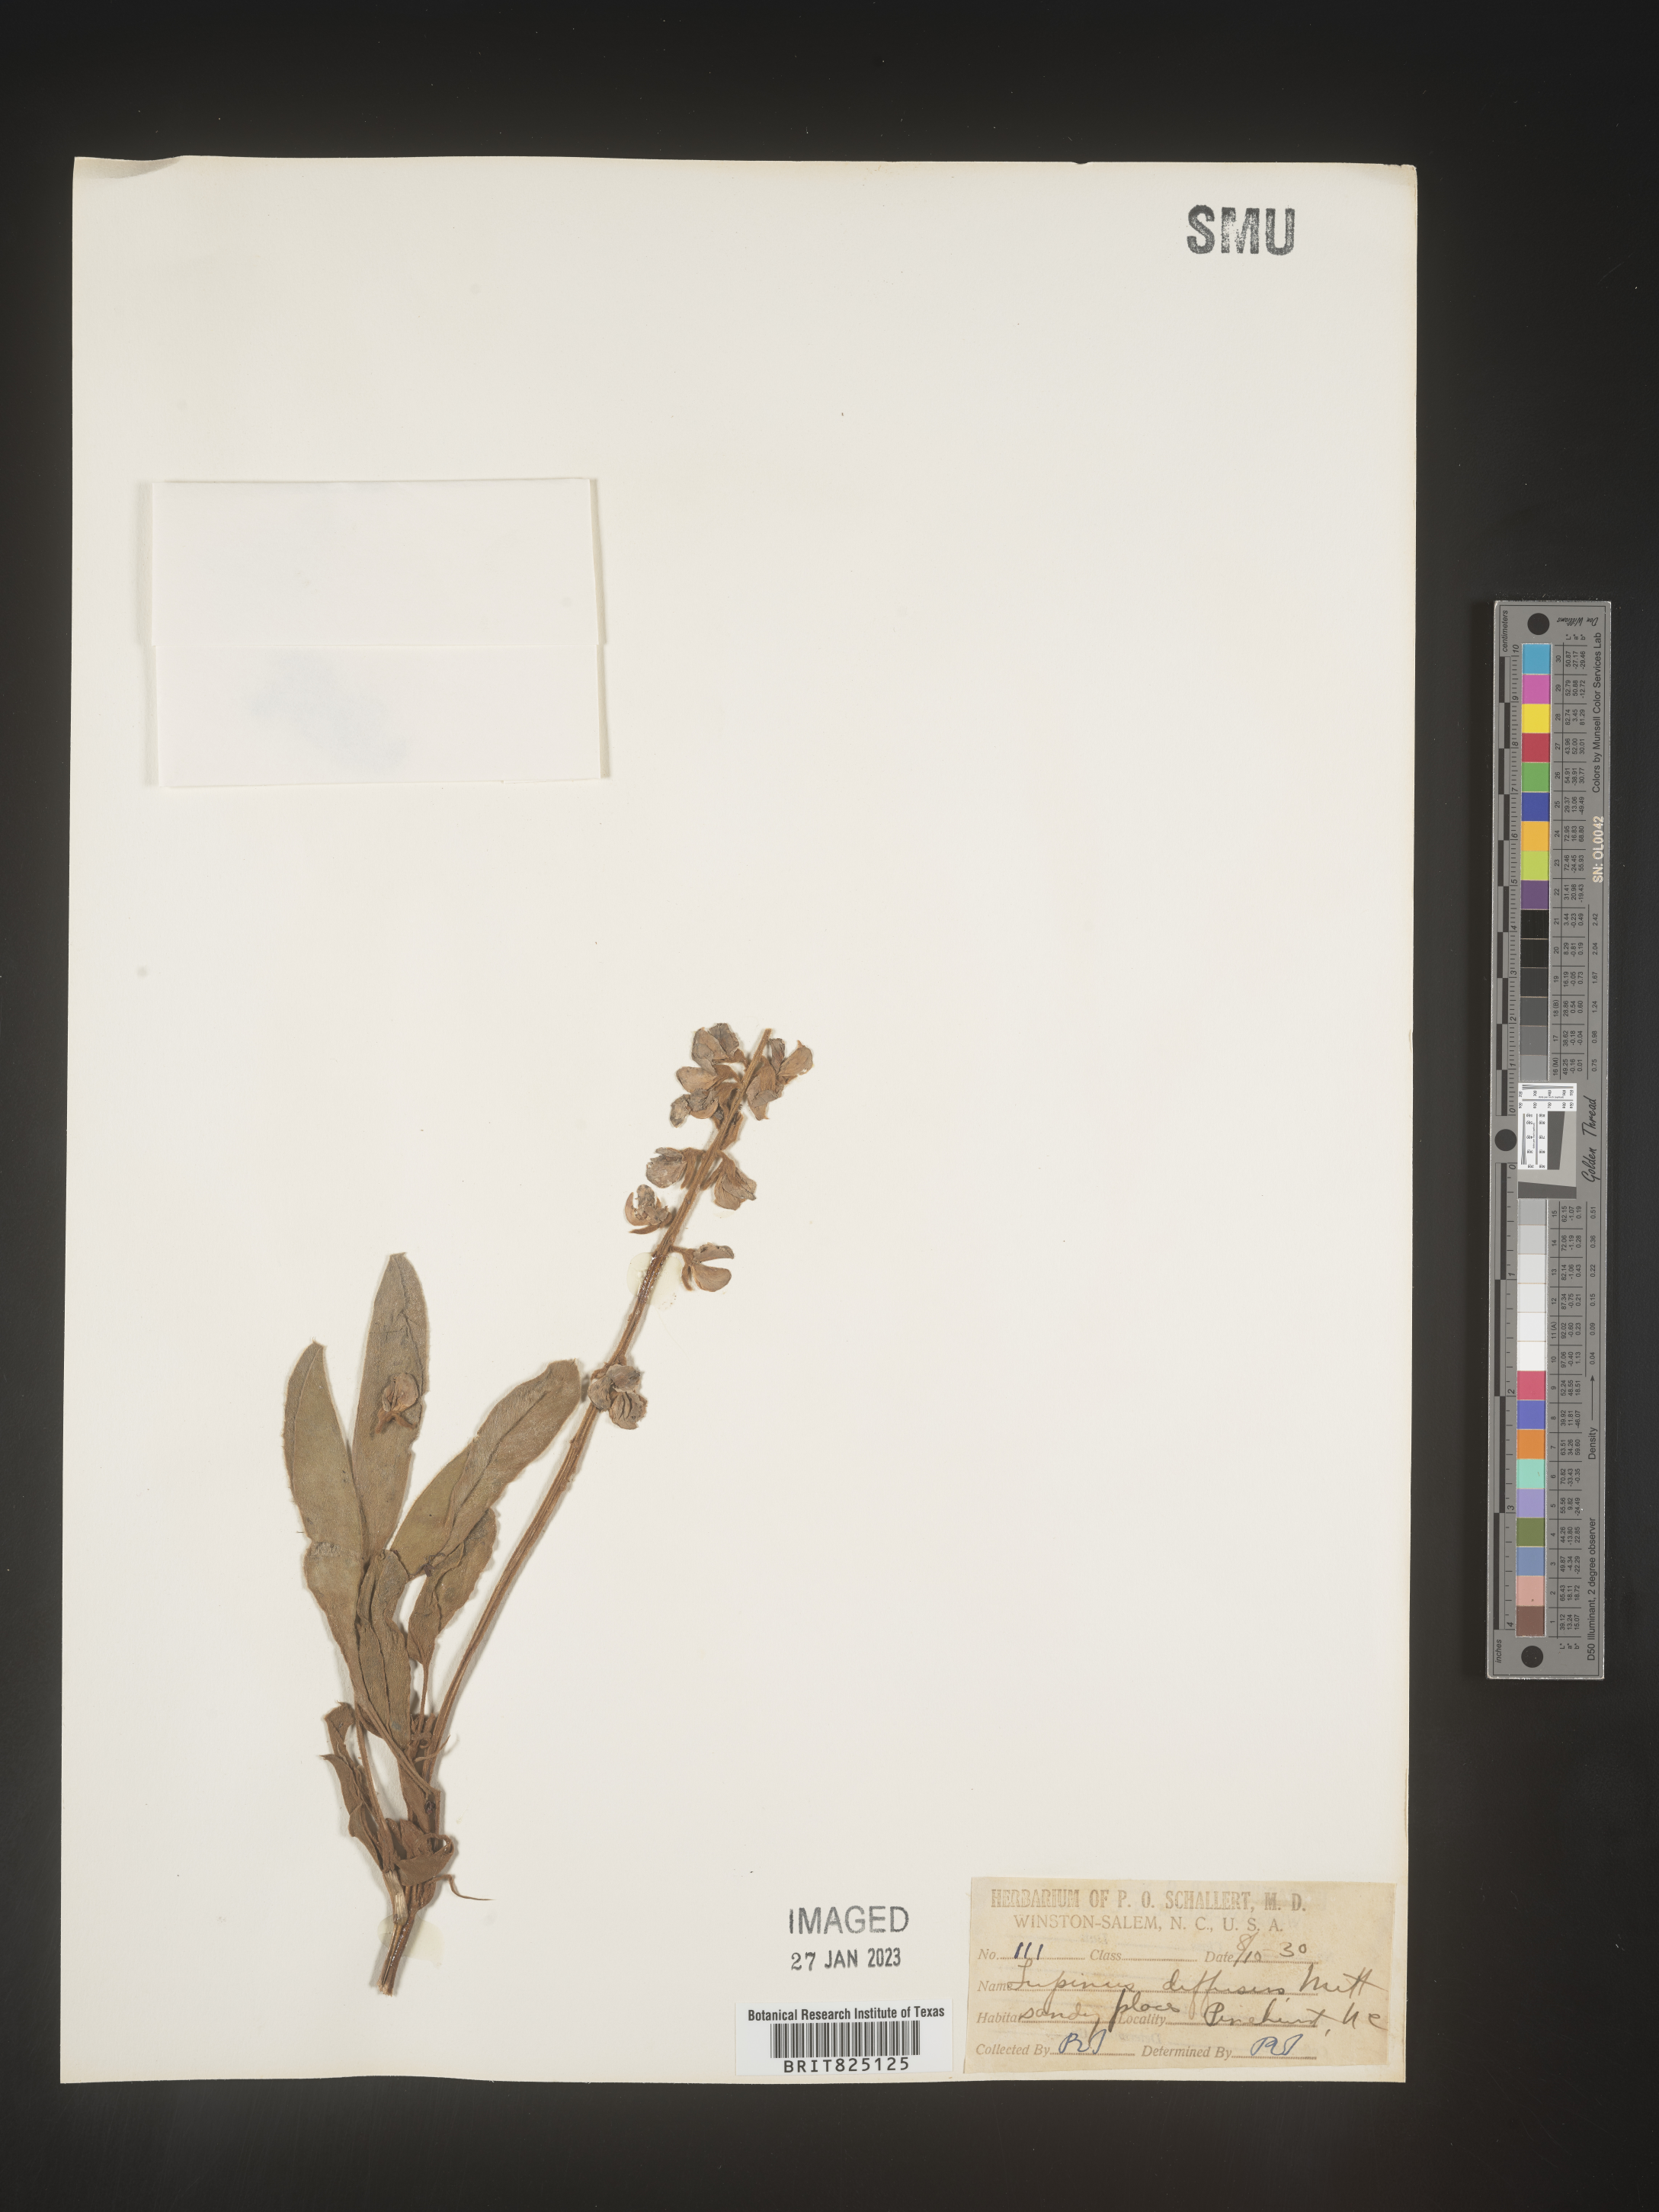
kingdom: Plantae
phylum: Tracheophyta
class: Magnoliopsida
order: Fabales
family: Fabaceae
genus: Lupinus
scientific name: Lupinus diffusus
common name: Oak ridge lupine
